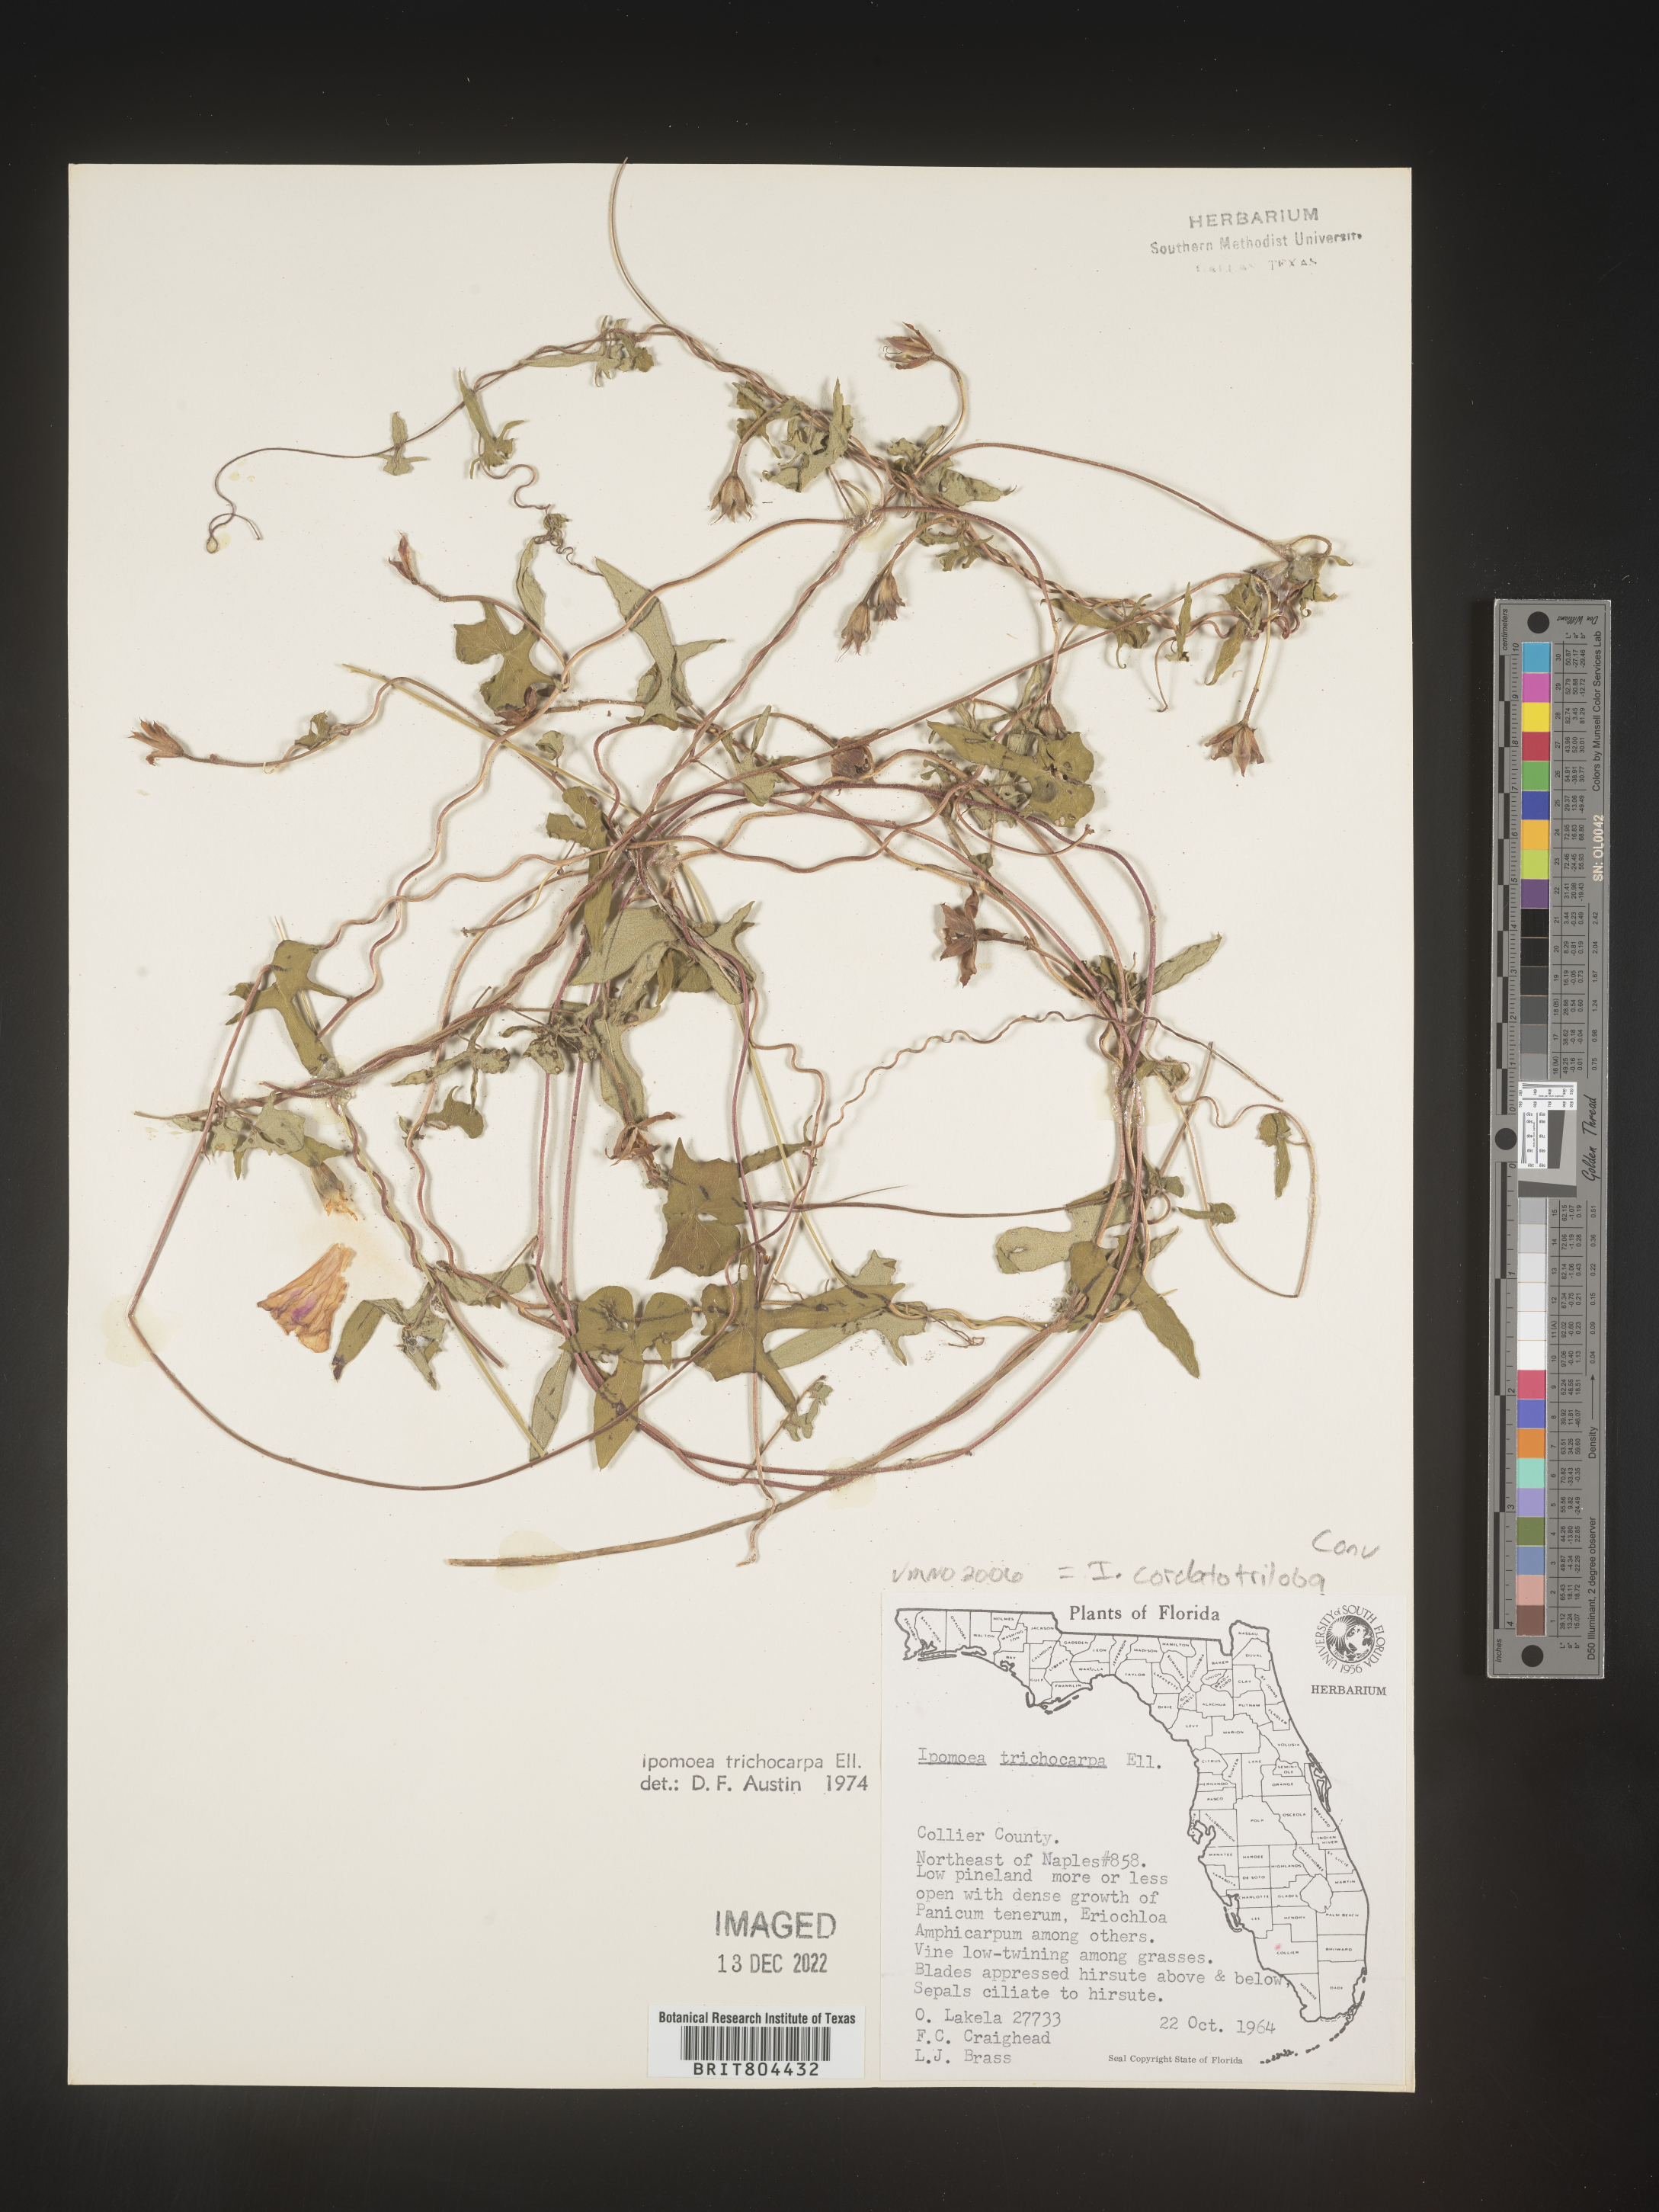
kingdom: Plantae
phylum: Tracheophyta
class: Magnoliopsida
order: Solanales
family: Convolvulaceae
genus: Ipomoea
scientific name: Ipomoea cordatotriloba
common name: Cotton morning glory
